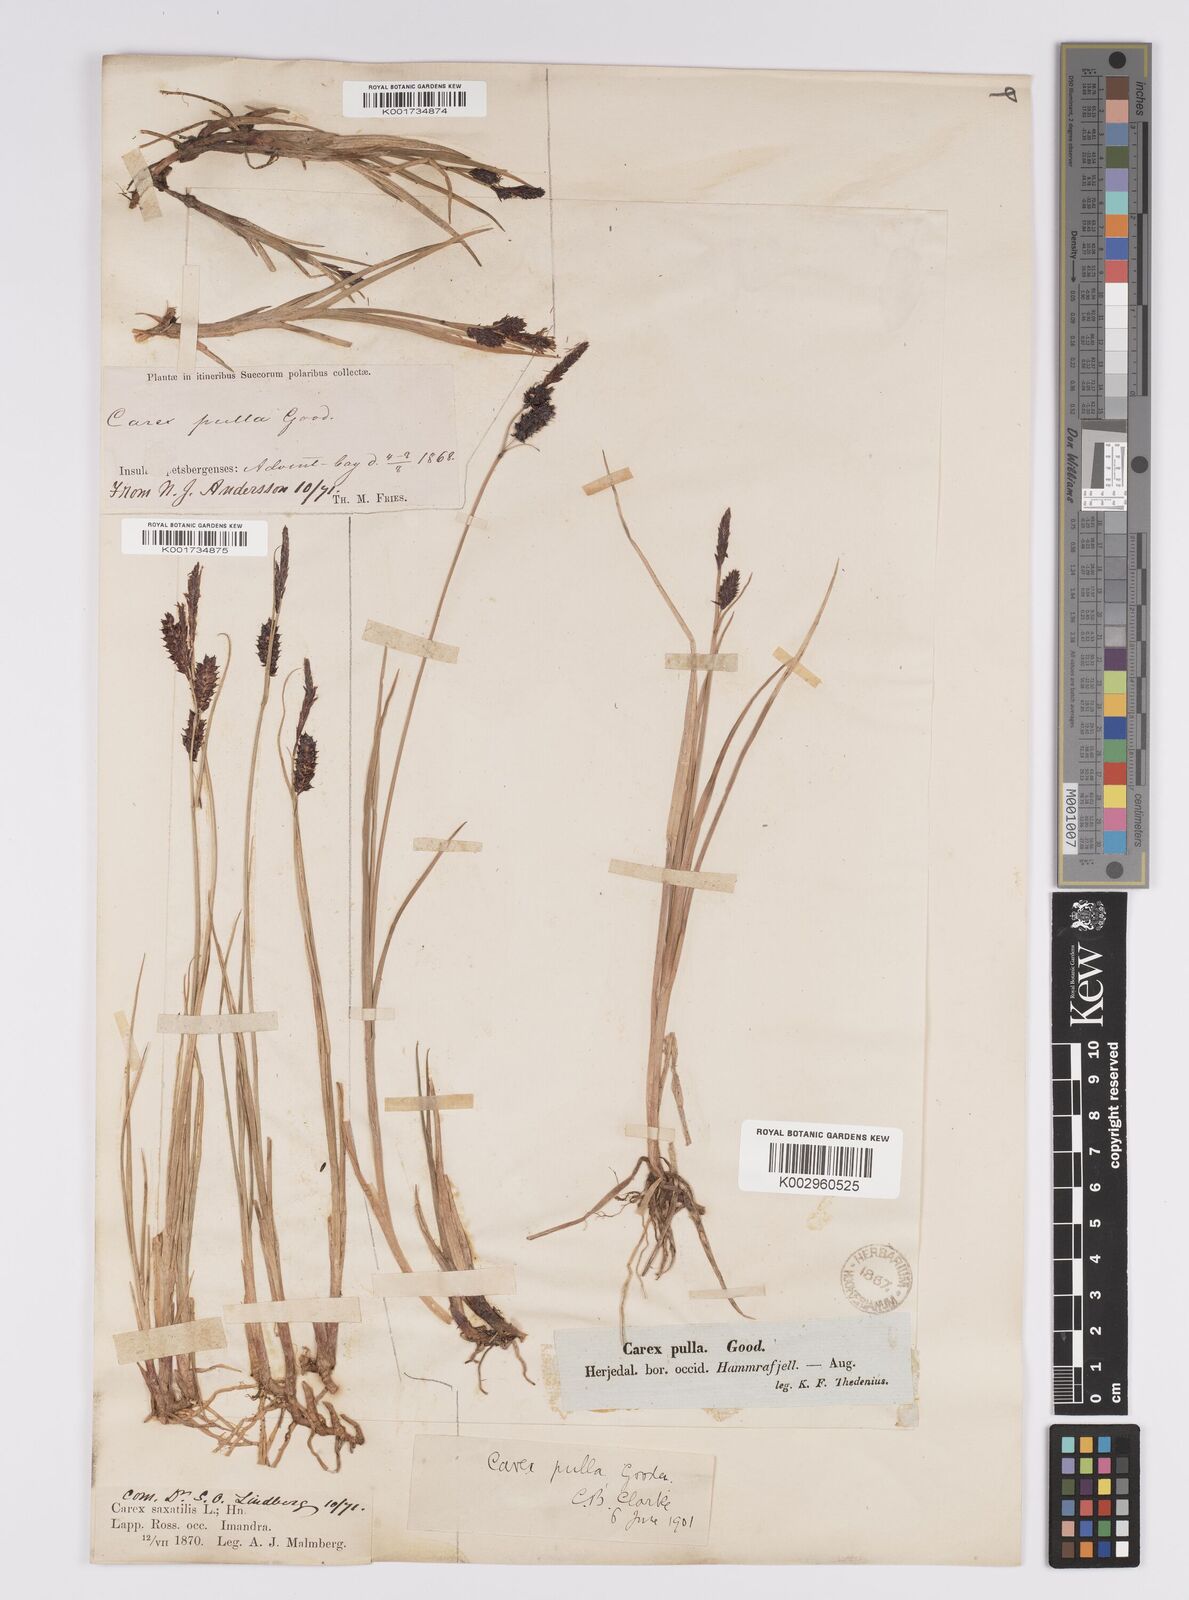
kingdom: Plantae
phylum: Tracheophyta
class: Liliopsida
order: Poales
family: Cyperaceae
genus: Carex
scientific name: Carex saxatilis
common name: Russet sedge
